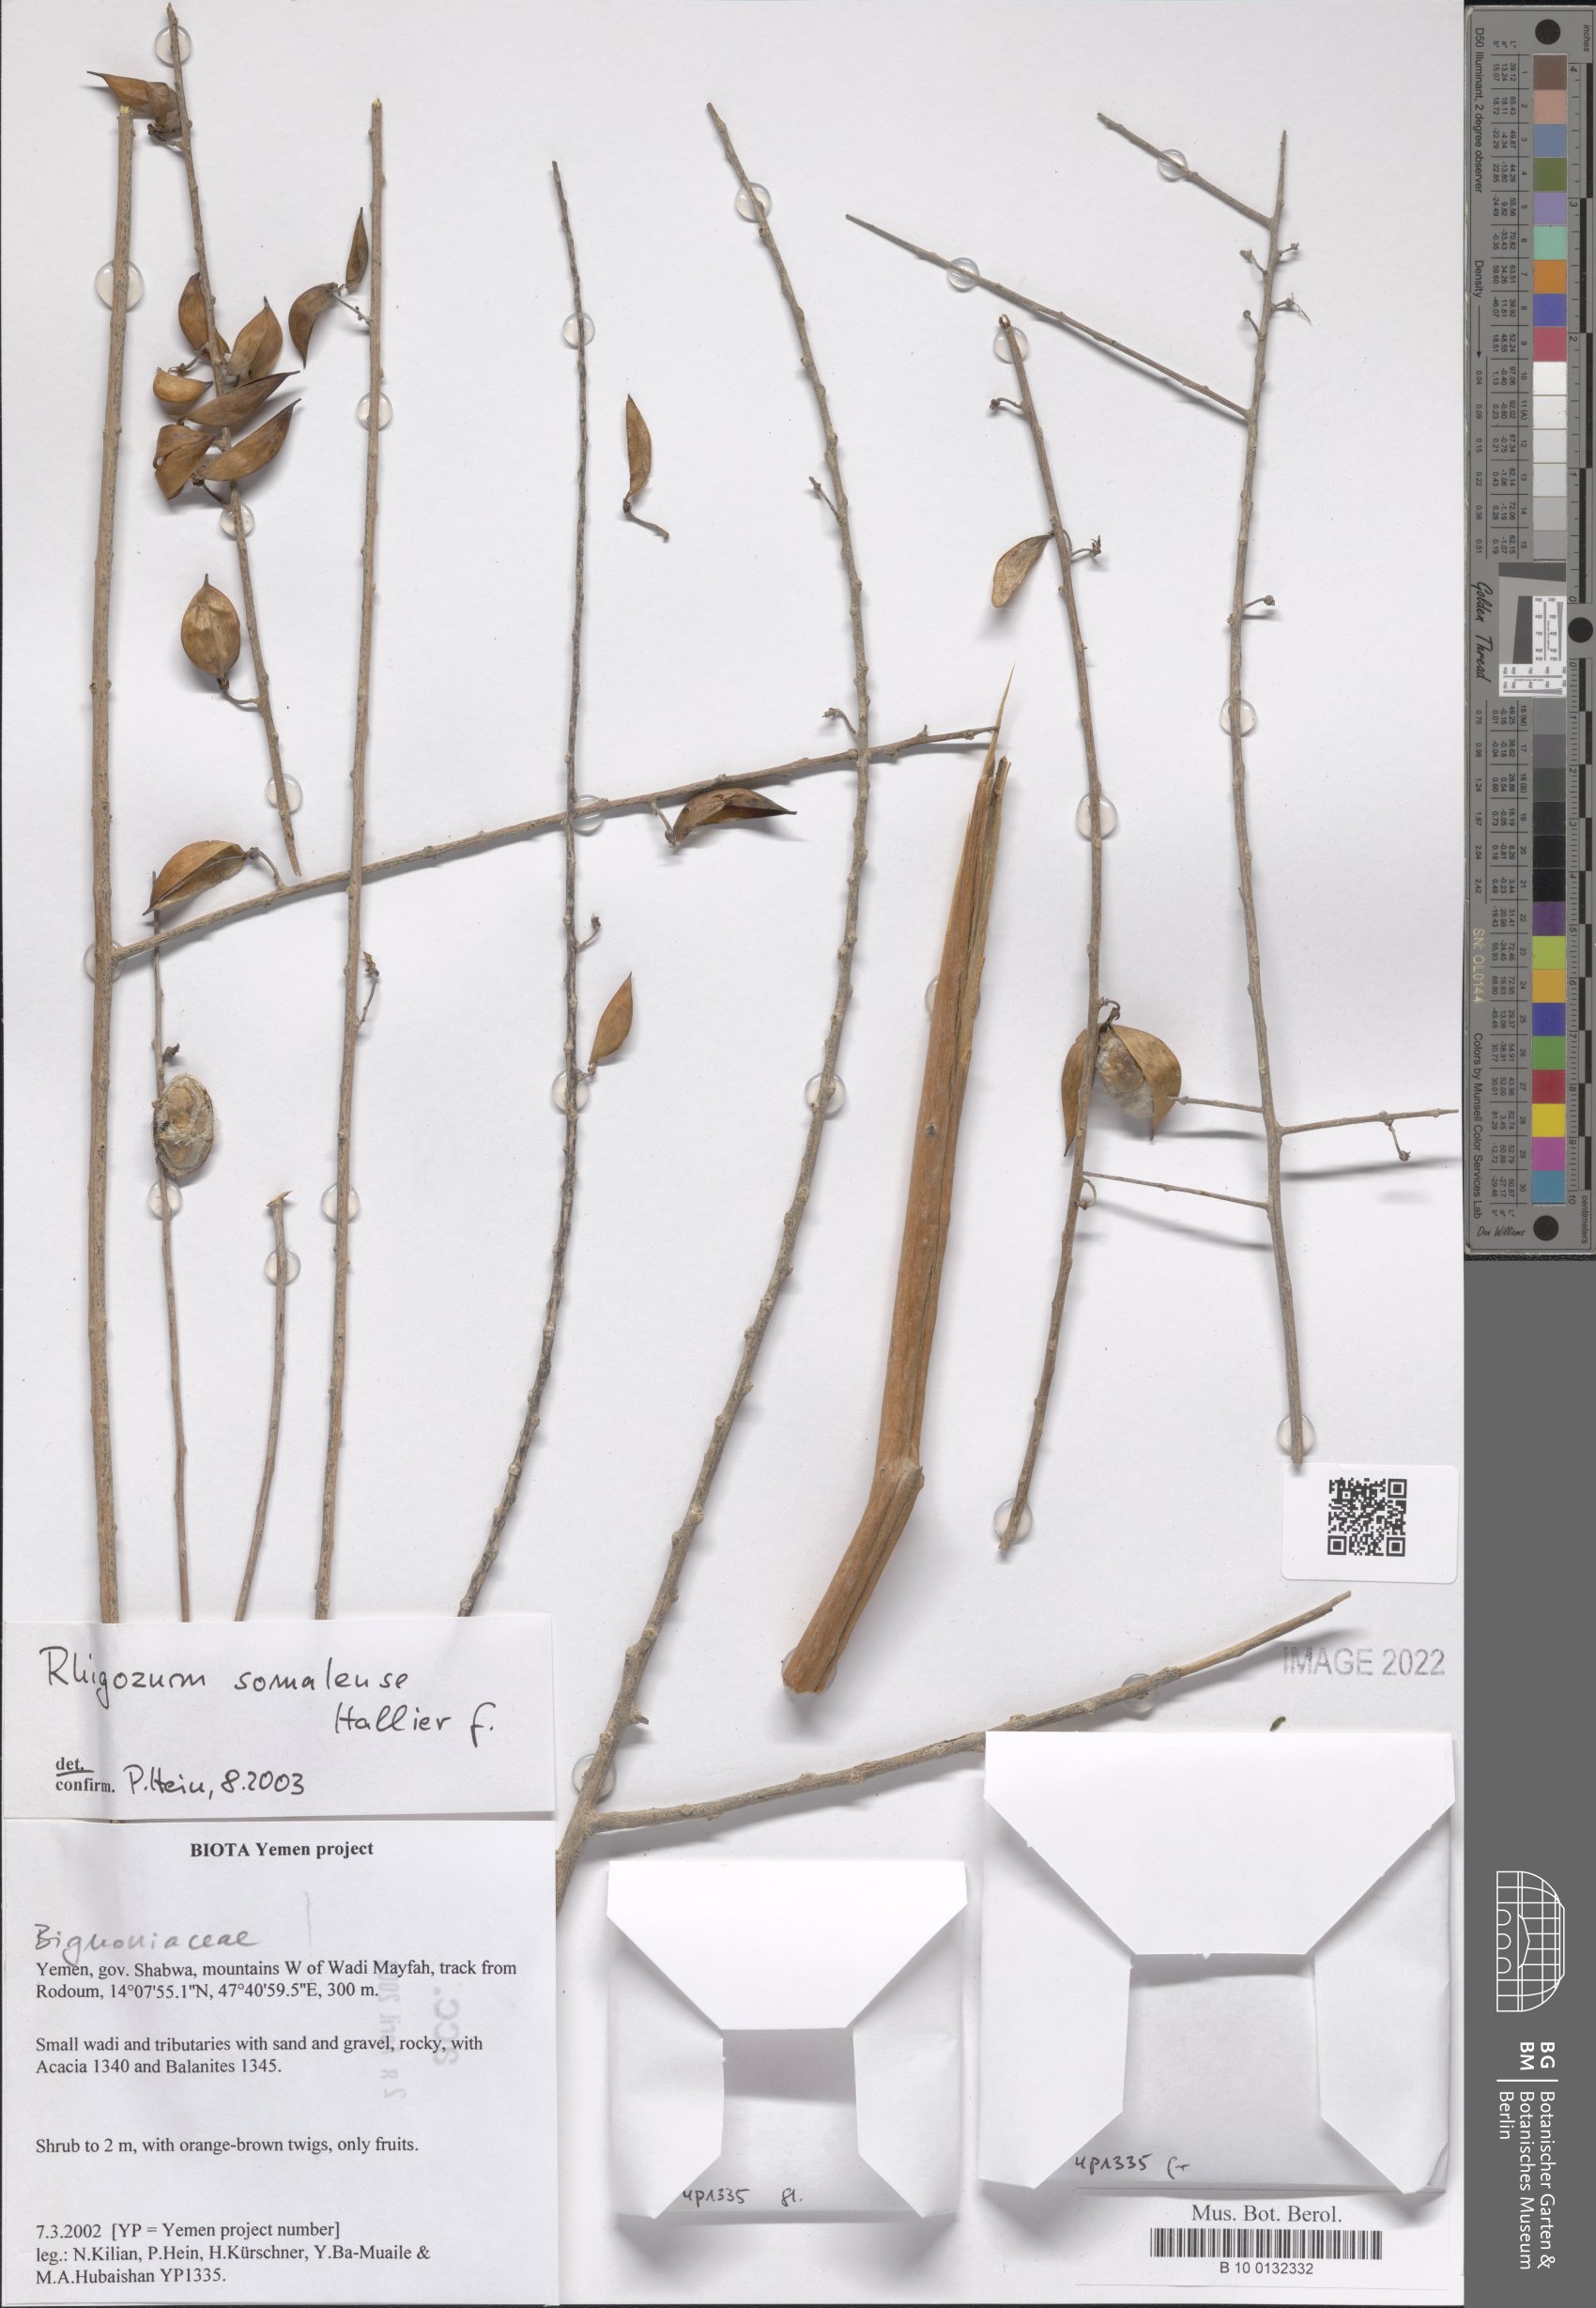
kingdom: Plantae
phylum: Tracheophyta
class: Magnoliopsida
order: Lamiales
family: Bignoniaceae
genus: Rhigozum
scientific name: Rhigozum somalense
